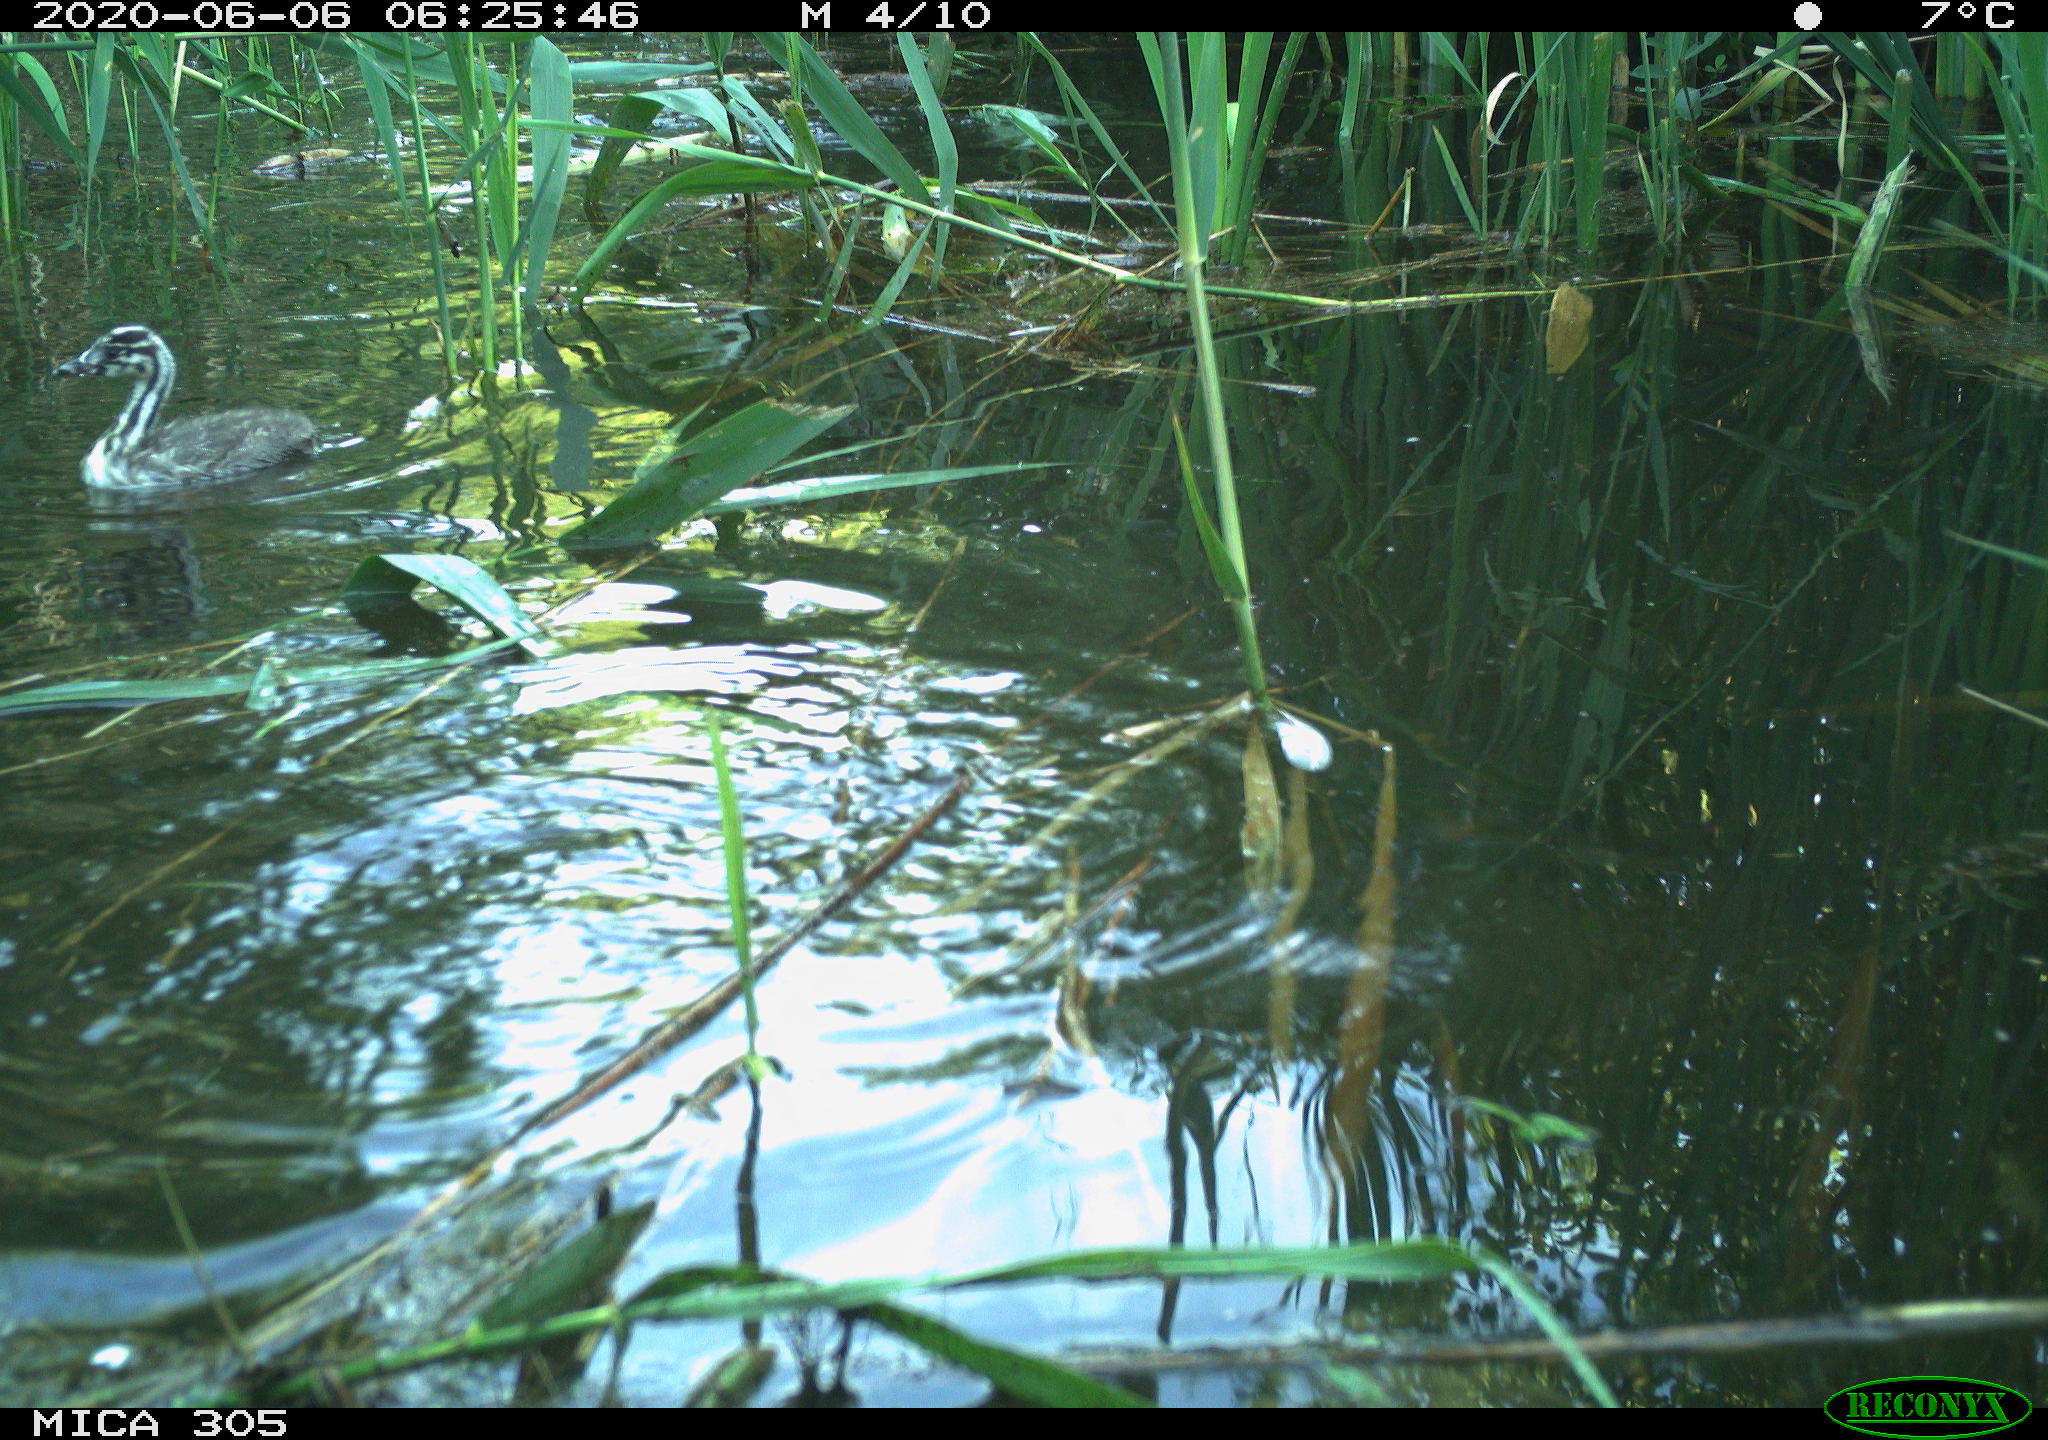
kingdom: Animalia
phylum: Chordata
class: Aves
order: Podicipediformes
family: Podicipedidae
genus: Podiceps
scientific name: Podiceps cristatus
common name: Great crested grebe
